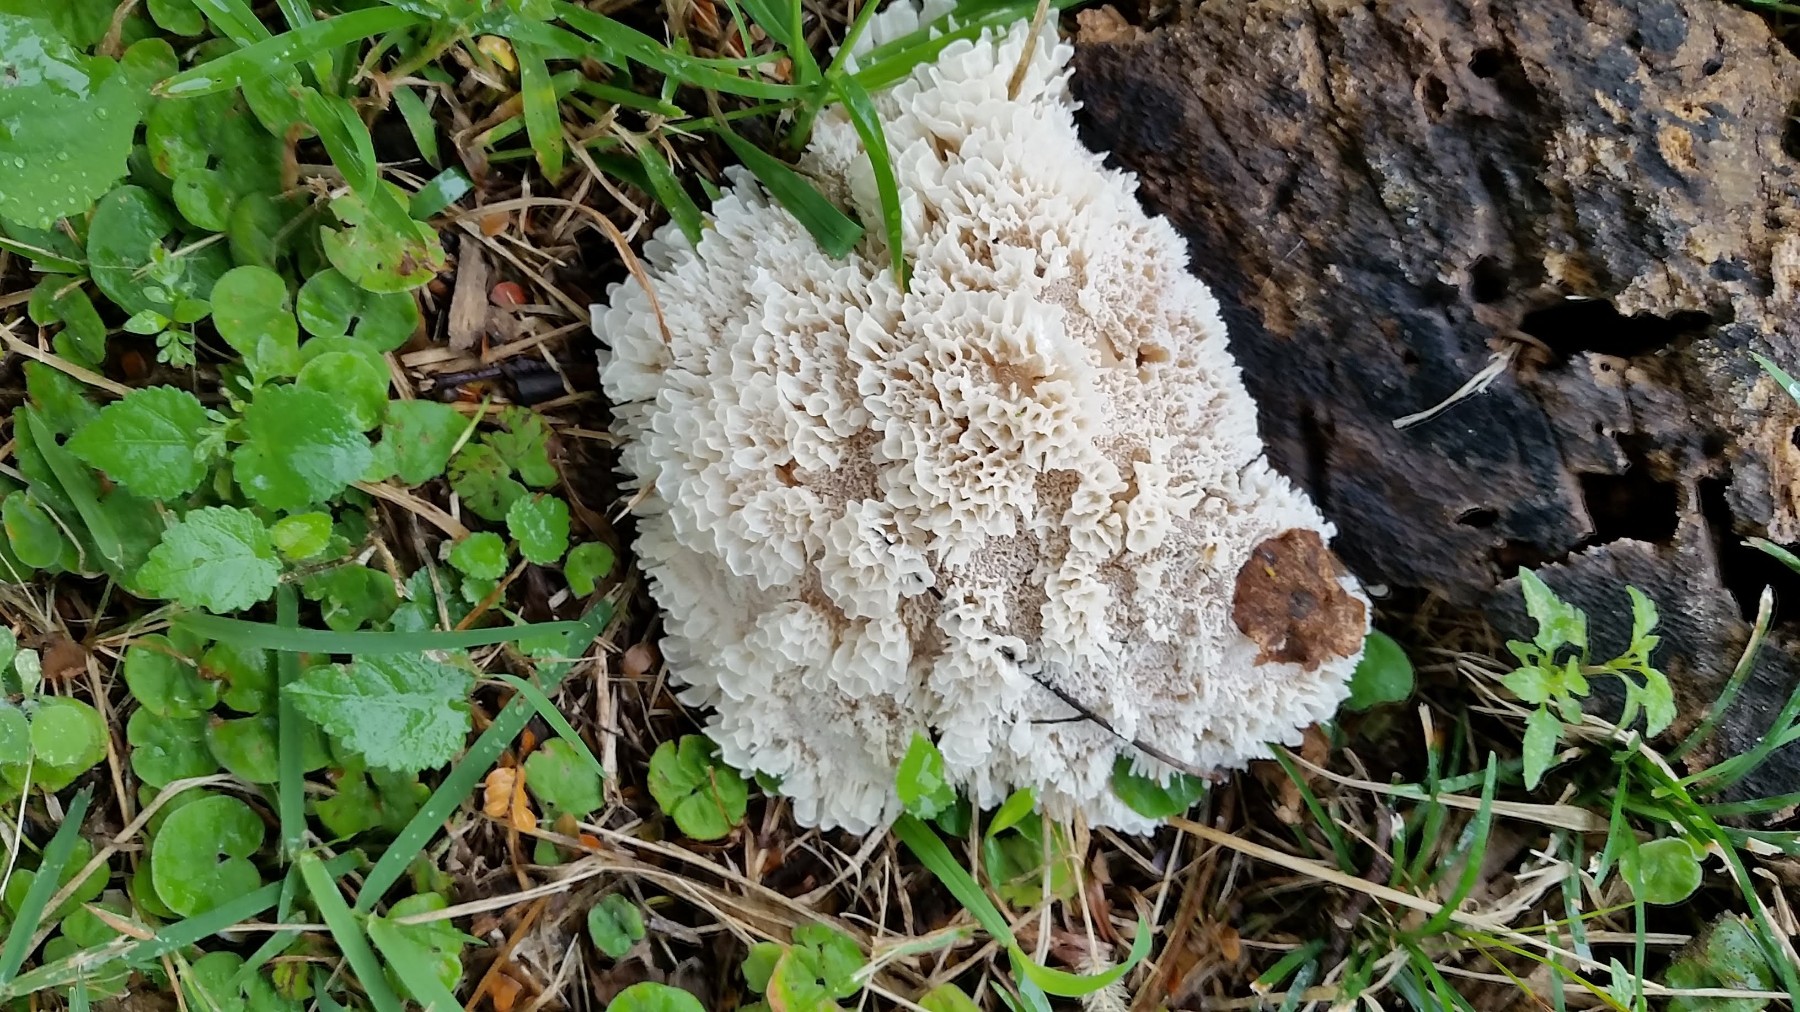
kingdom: Fungi
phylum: Basidiomycota
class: Agaricomycetes
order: Polyporales
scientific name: Polyporales
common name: poresvampordenen
